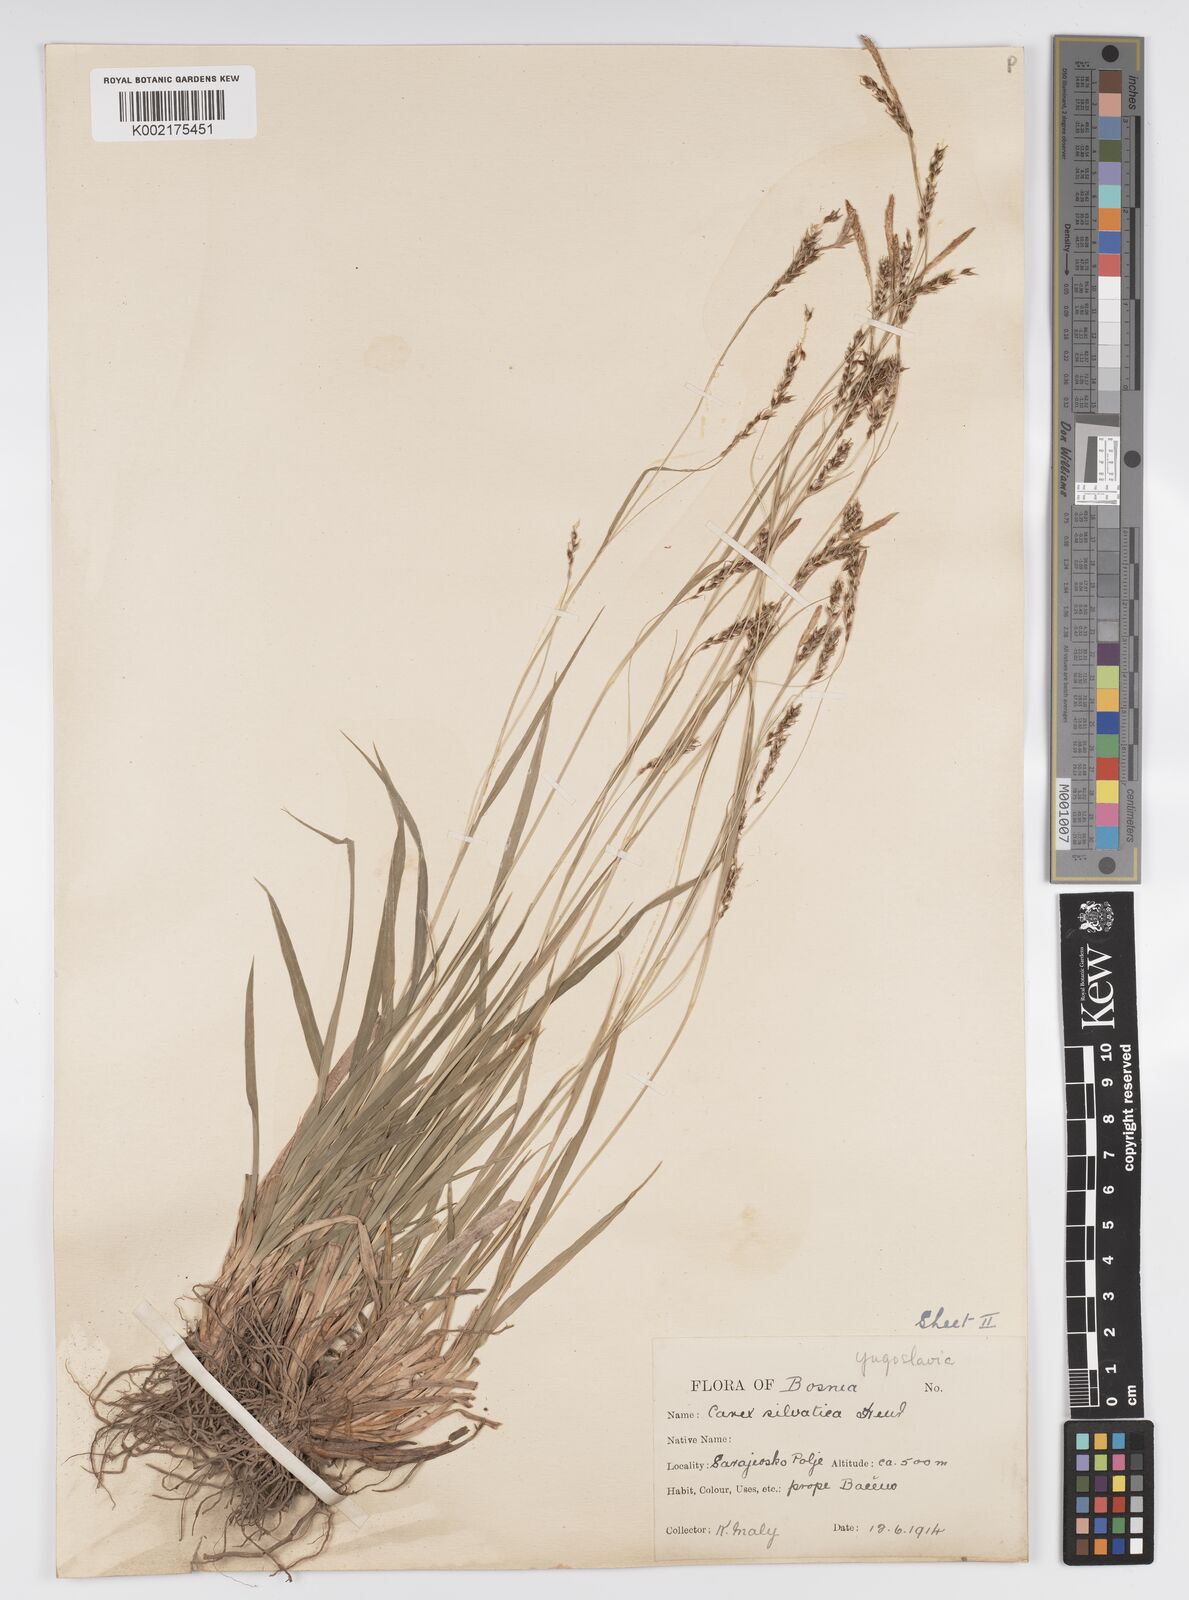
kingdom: Plantae
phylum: Tracheophyta
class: Liliopsida
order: Poales
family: Cyperaceae
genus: Carex
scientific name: Carex sylvatica
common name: Wood-sedge
